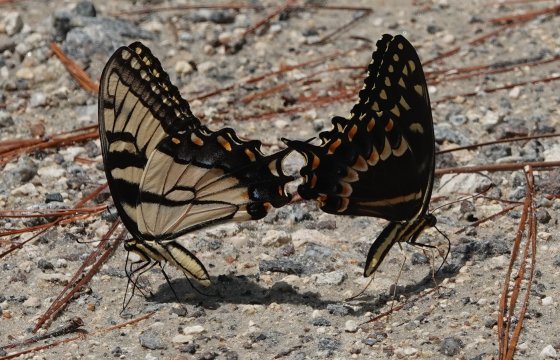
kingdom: Animalia
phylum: Arthropoda
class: Insecta
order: Lepidoptera
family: Papilionidae
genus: Pterourus
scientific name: Pterourus palamedes
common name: Palamedes Swallowtail
